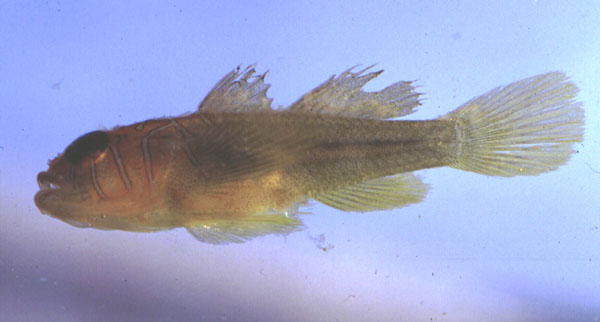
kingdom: Animalia
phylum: Chordata
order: Perciformes
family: Gobiidae
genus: Priolepis
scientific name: Priolepis semidoliata
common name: Barrel goby
